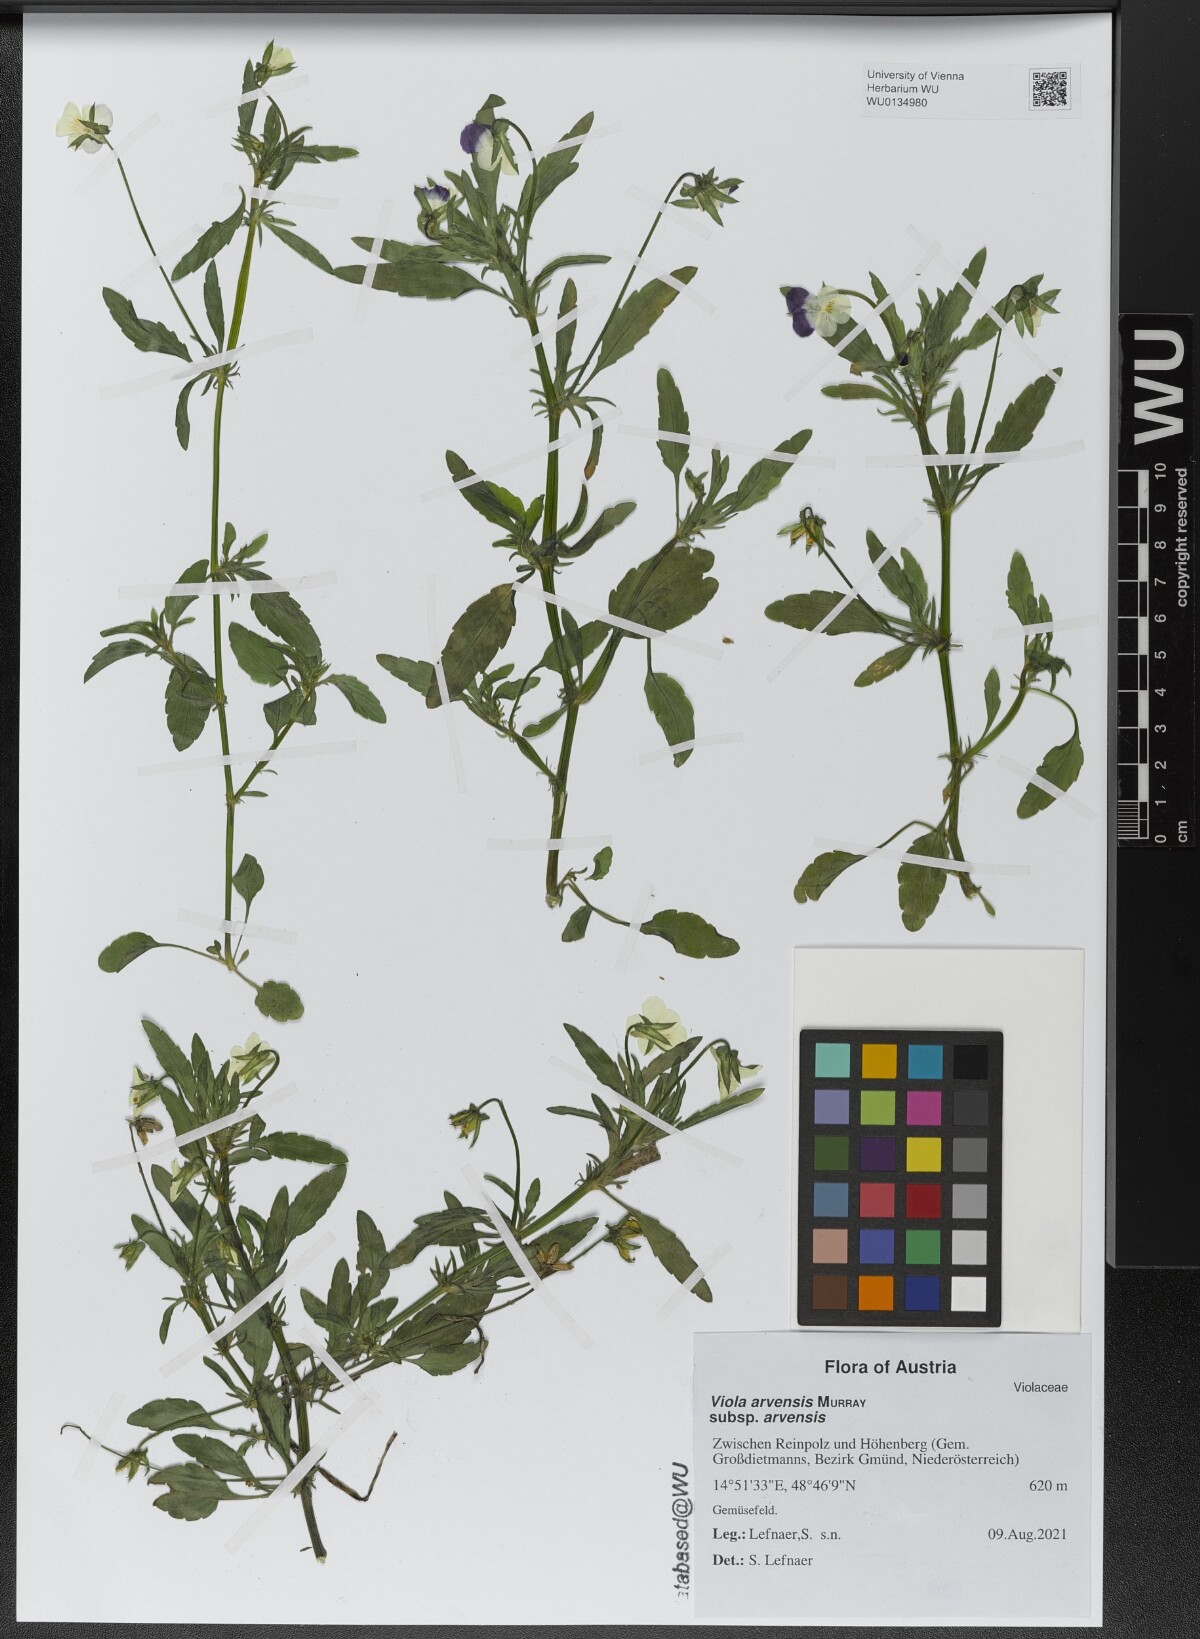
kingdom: Plantae
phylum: Tracheophyta
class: Magnoliopsida
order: Malpighiales
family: Violaceae
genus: Viola
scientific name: Viola arvensis
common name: Field pansy
